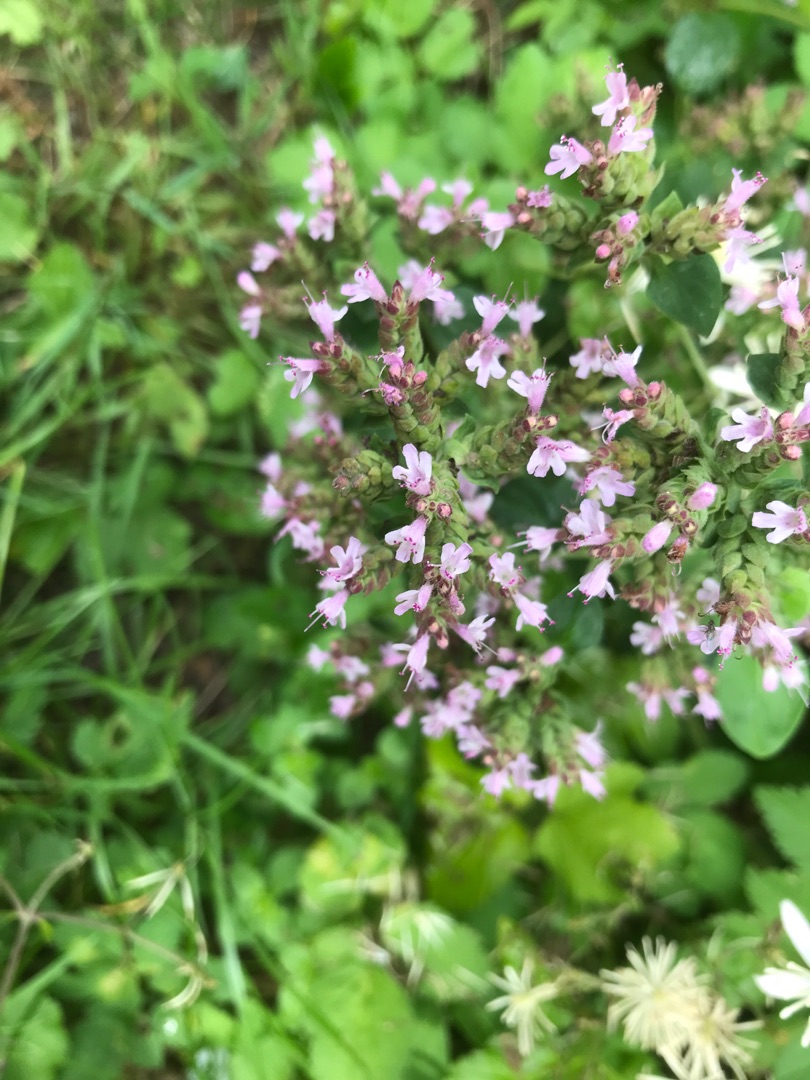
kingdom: Plantae
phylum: Tracheophyta
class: Magnoliopsida
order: Lamiales
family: Lamiaceae
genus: Origanum
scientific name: Origanum vulgare
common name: Merian
